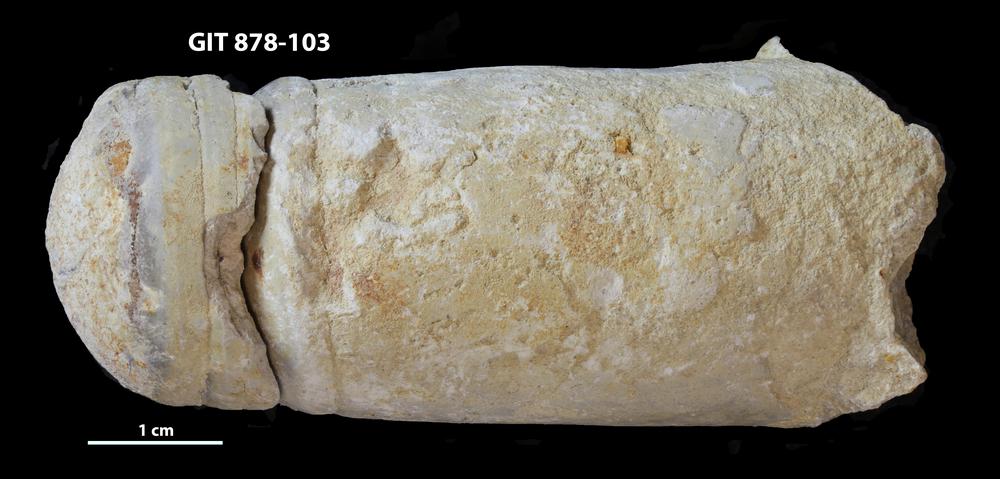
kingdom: Animalia
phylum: Mollusca
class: Cephalopoda
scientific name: Cephalopoda
